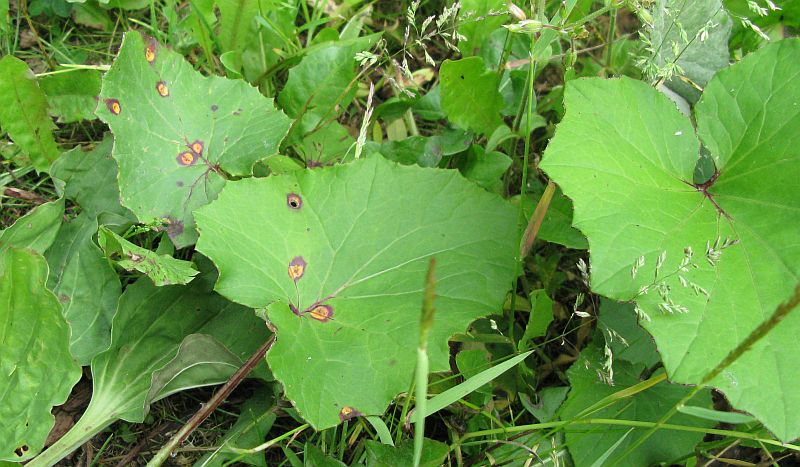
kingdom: Fungi
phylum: Basidiomycota
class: Pucciniomycetes
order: Pucciniales
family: Pucciniaceae
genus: Puccinia
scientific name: Puccinia poarum
